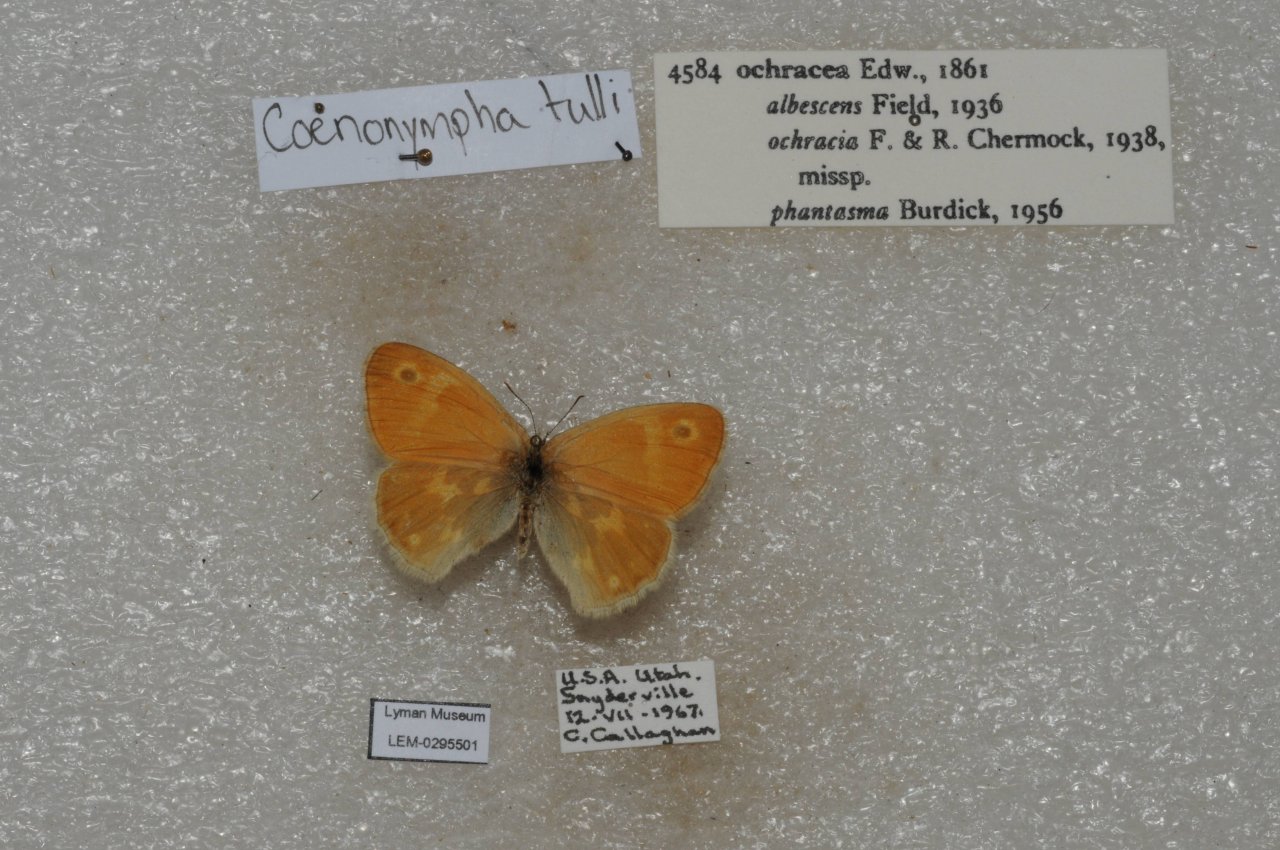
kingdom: Animalia
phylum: Arthropoda
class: Insecta
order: Lepidoptera
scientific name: Lepidoptera
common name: Butterflies
